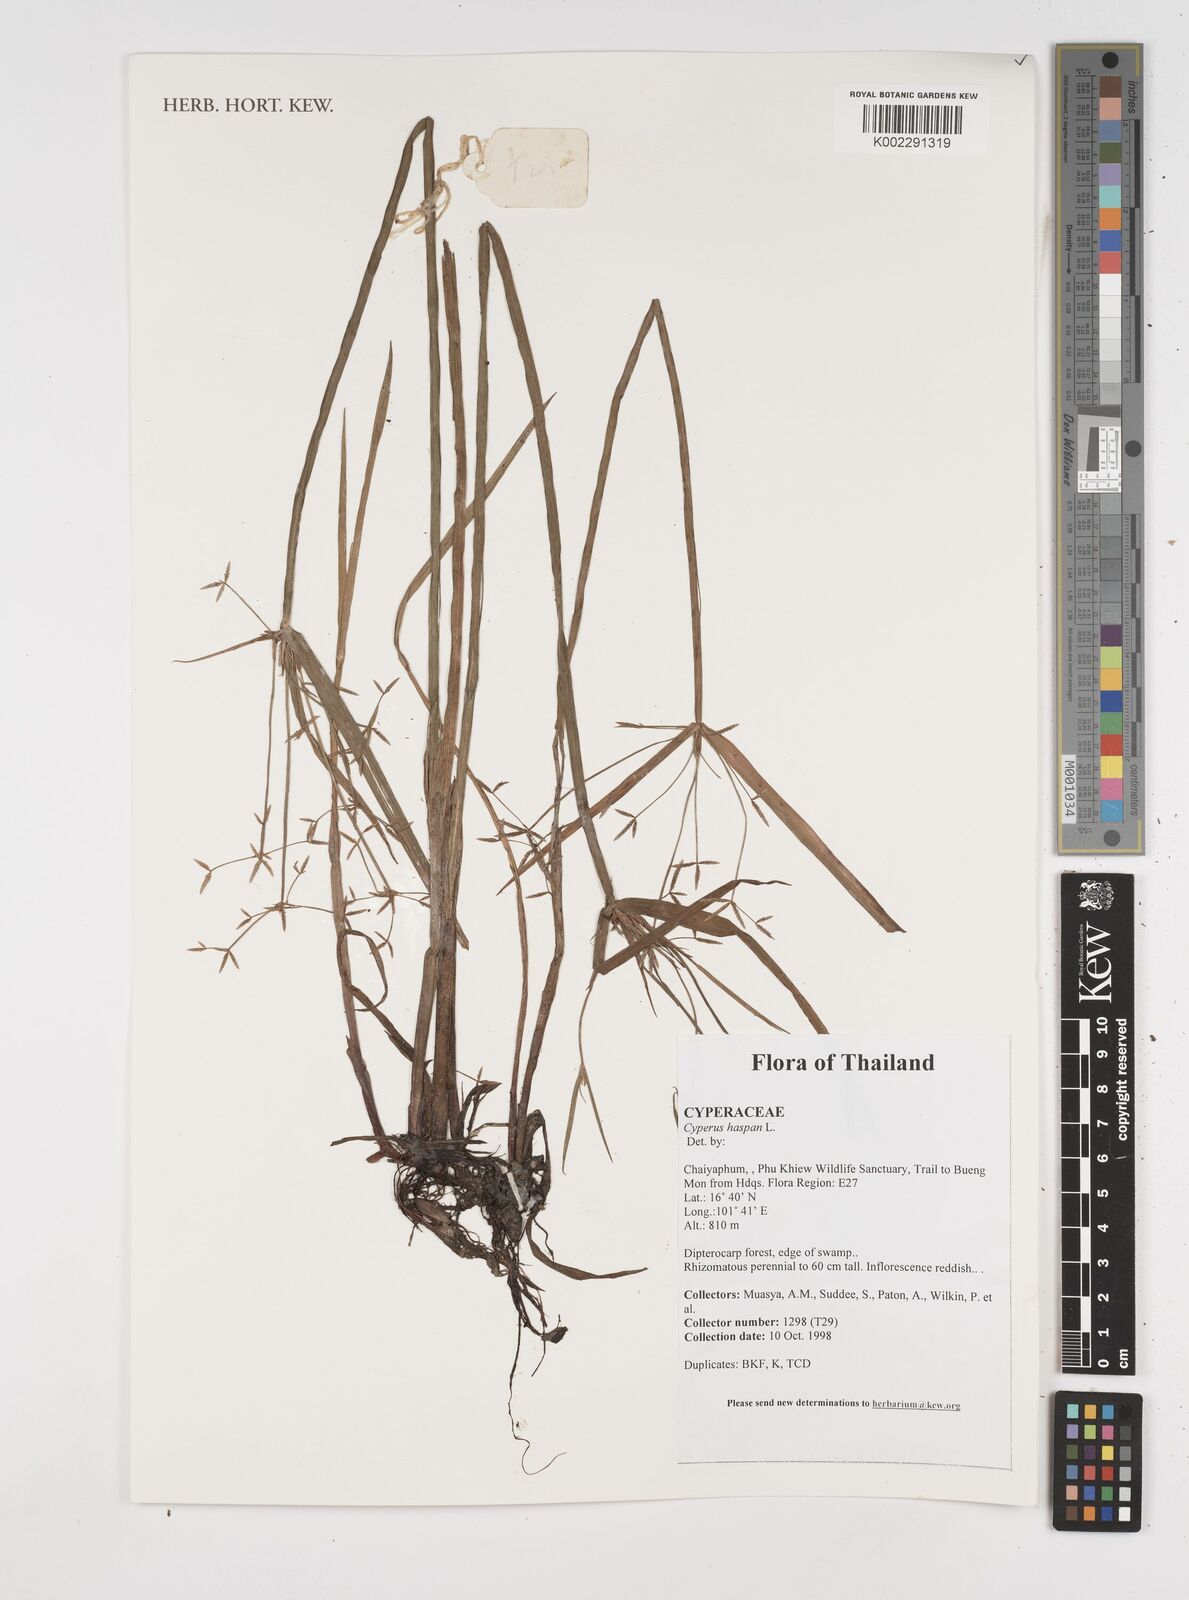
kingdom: Plantae
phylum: Tracheophyta
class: Liliopsida
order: Poales
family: Cyperaceae
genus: Cyperus
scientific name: Cyperus haspan
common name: Haspan flatsedge
